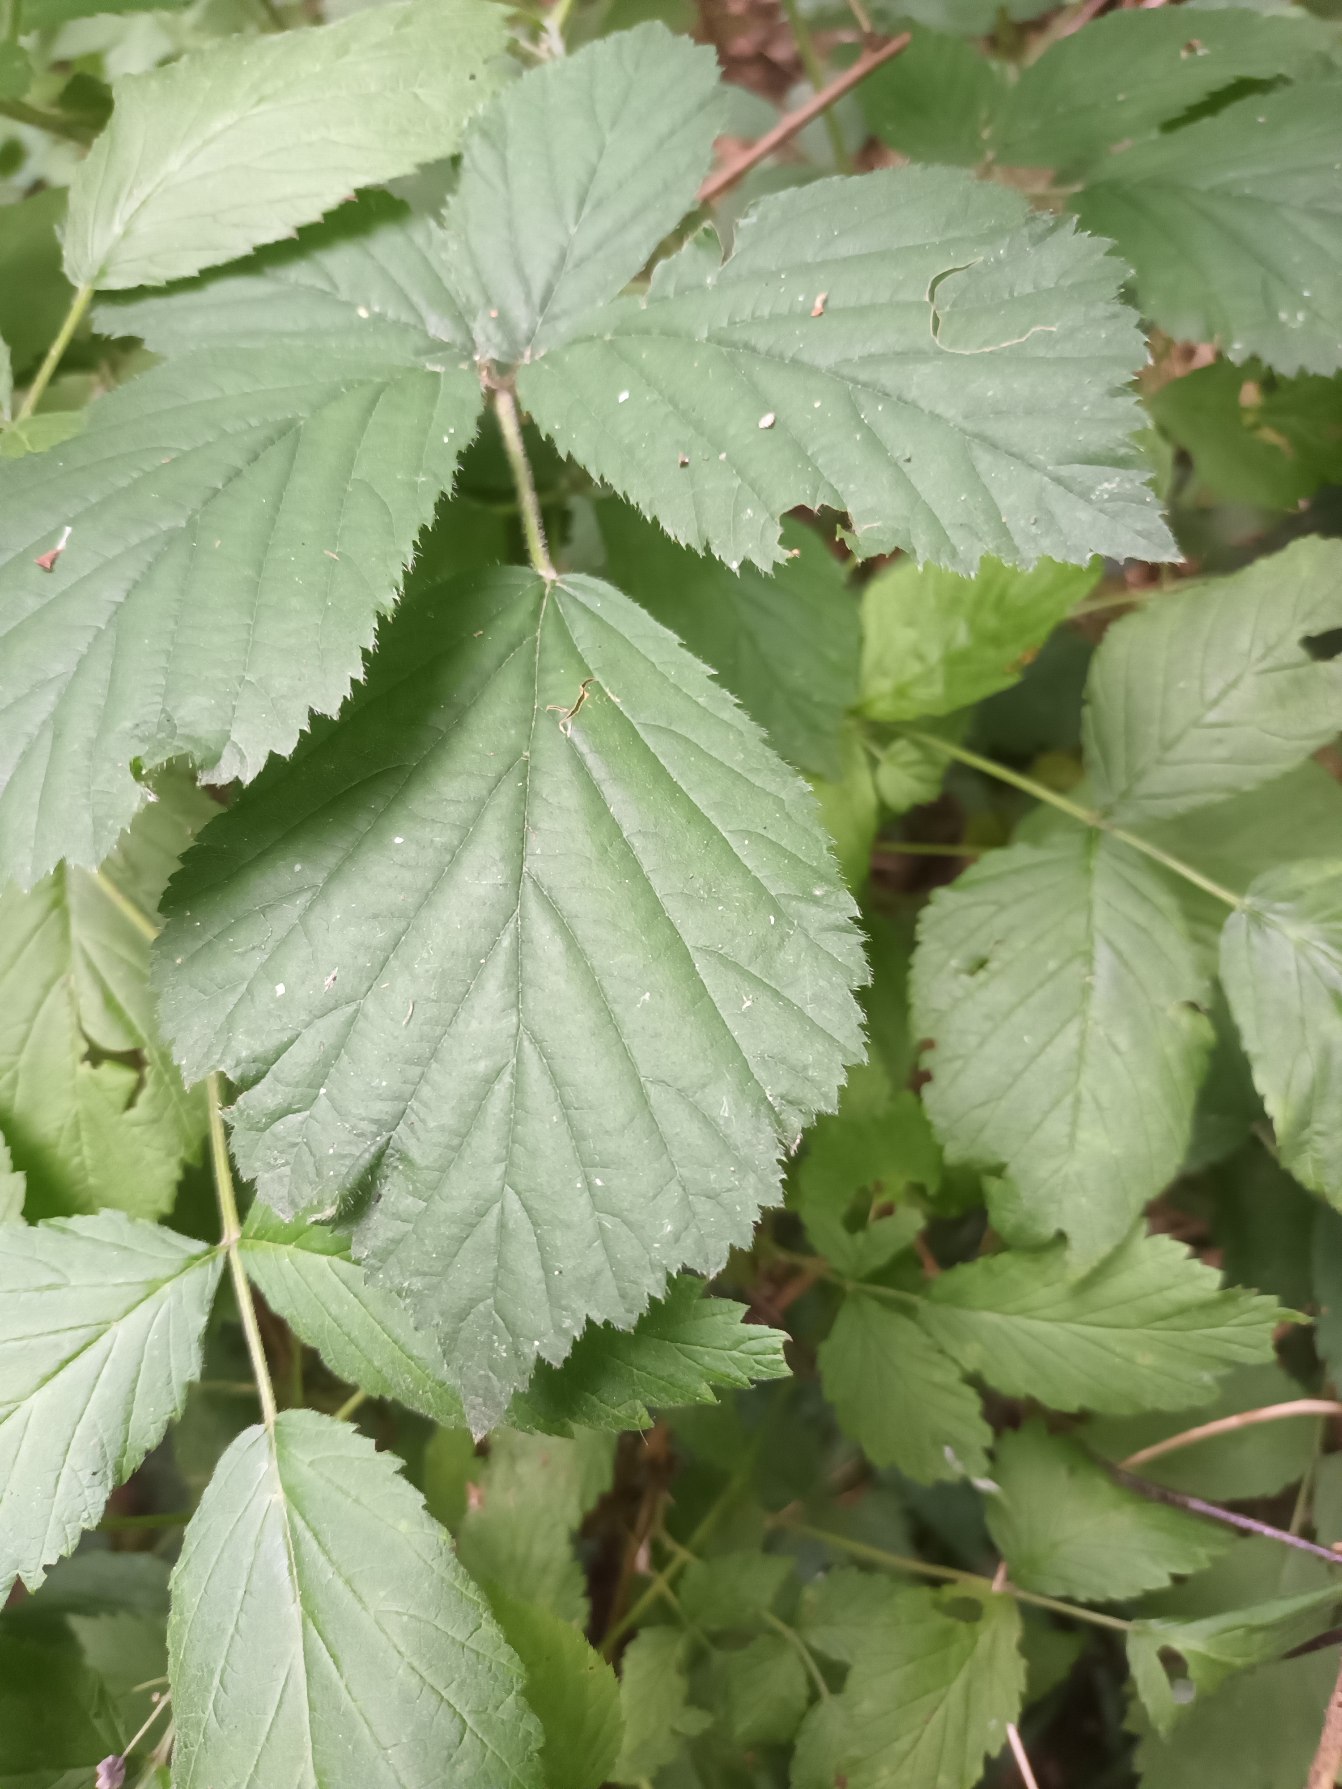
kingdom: Plantae
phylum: Tracheophyta
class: Magnoliopsida
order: Rosales
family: Rosaceae
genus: Rubus
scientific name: Rubus leptothyrsos
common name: Dansk brombær
